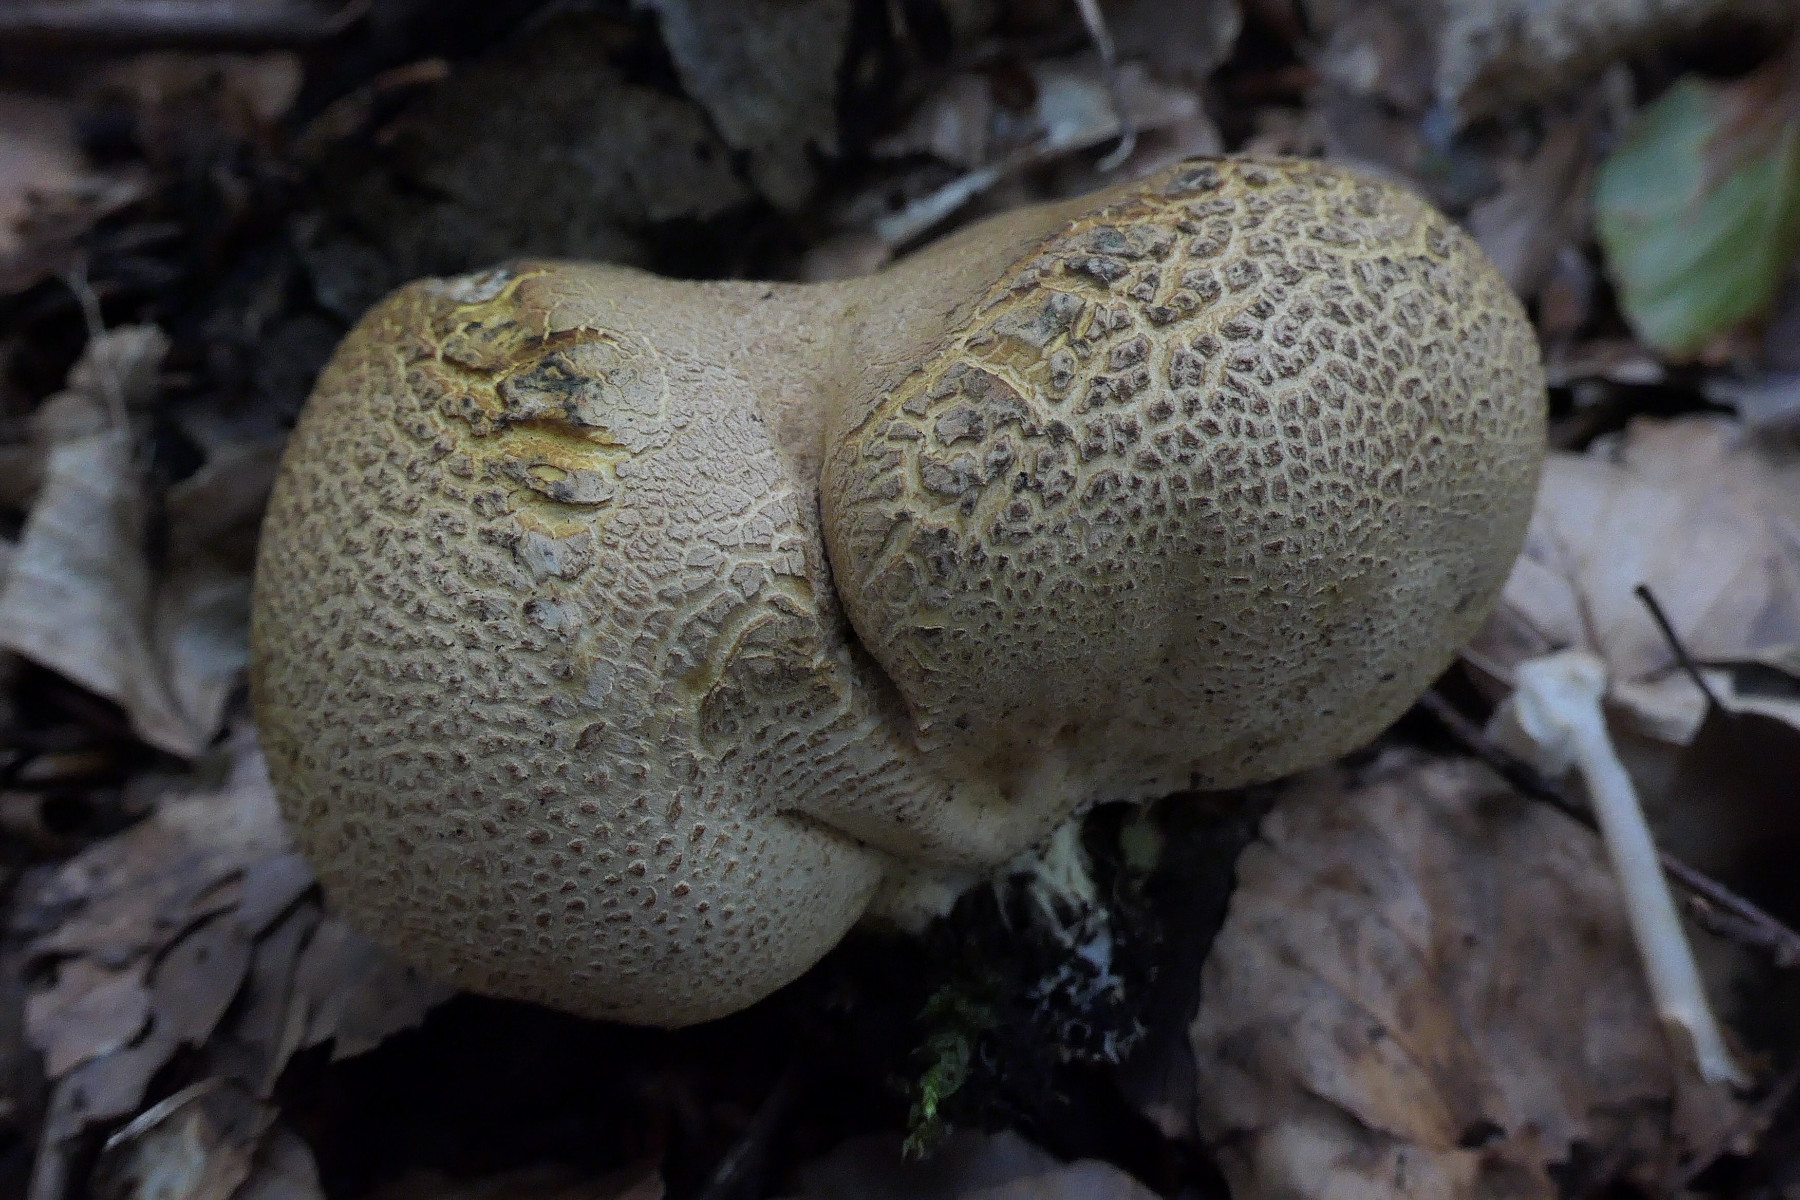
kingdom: Fungi
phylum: Basidiomycota
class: Agaricomycetes
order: Boletales
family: Sclerodermataceae
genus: Scleroderma
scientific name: Scleroderma citrinum
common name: almindelig bruskbold
